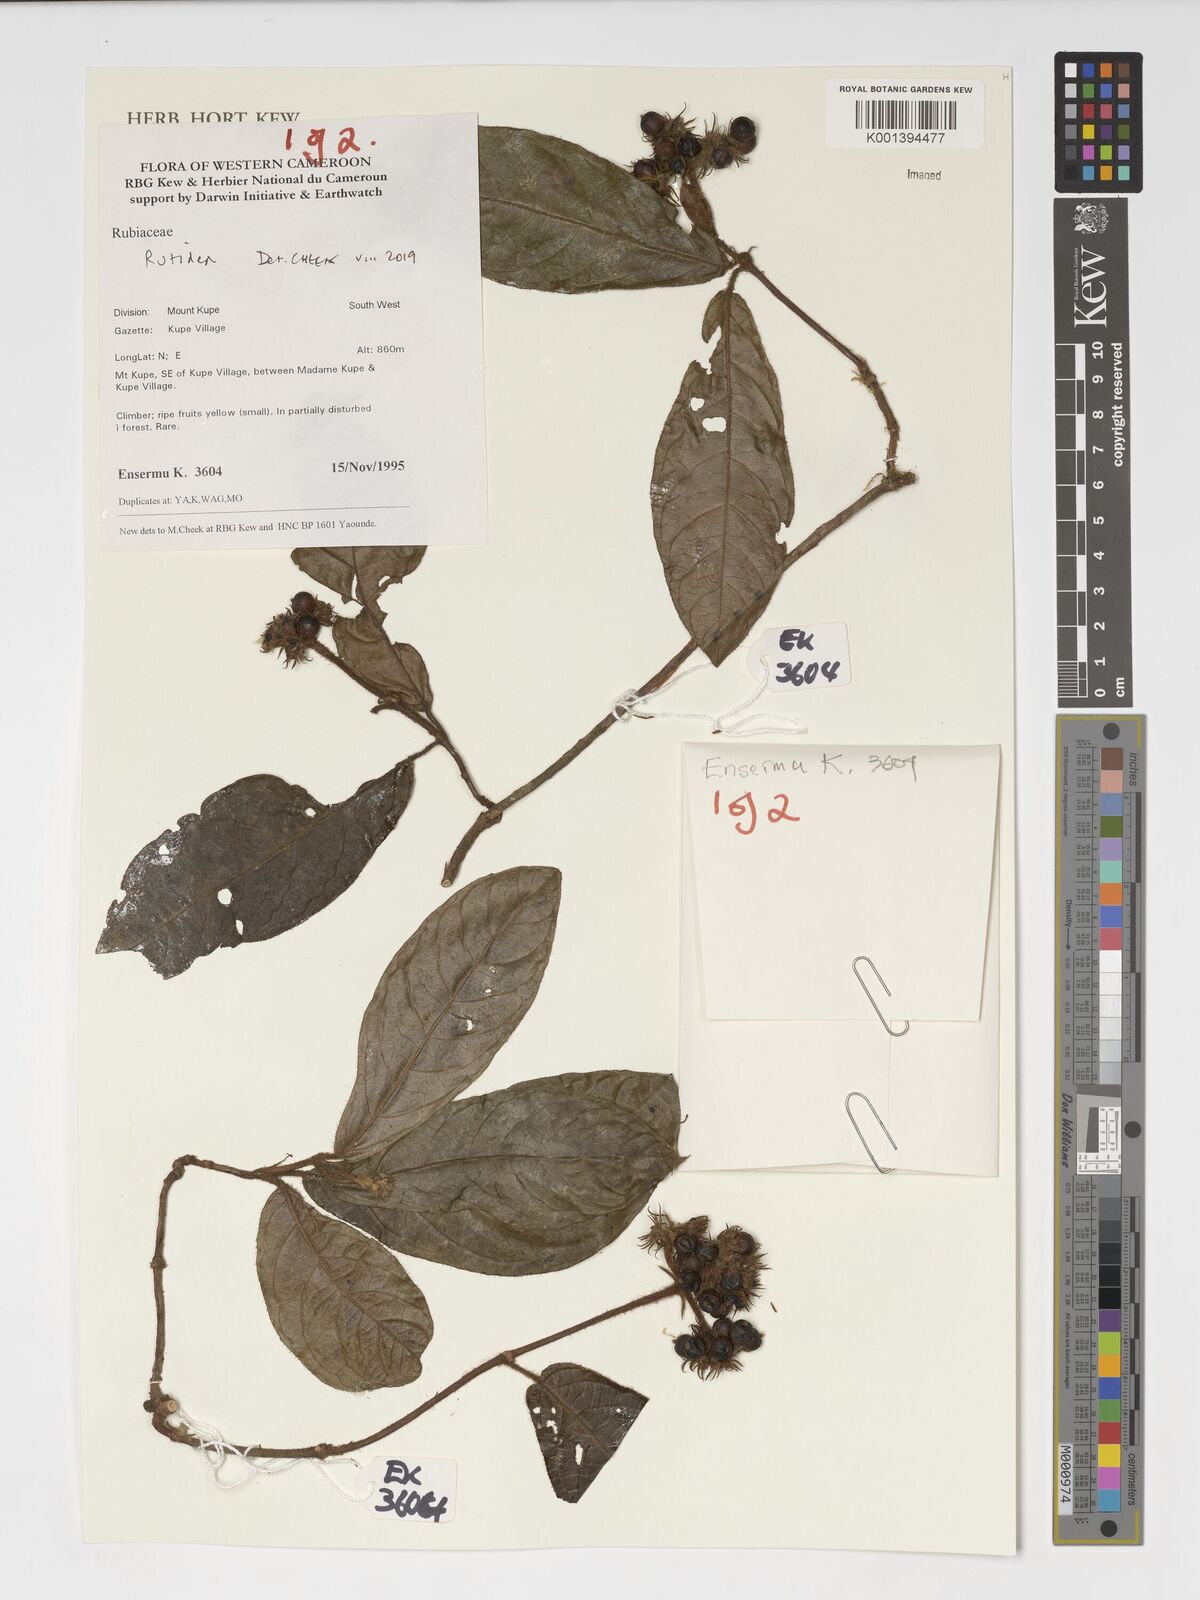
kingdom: Plantae
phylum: Tracheophyta
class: Magnoliopsida
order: Gentianales
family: Rubiaceae
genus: Rutidea
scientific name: Rutidea
